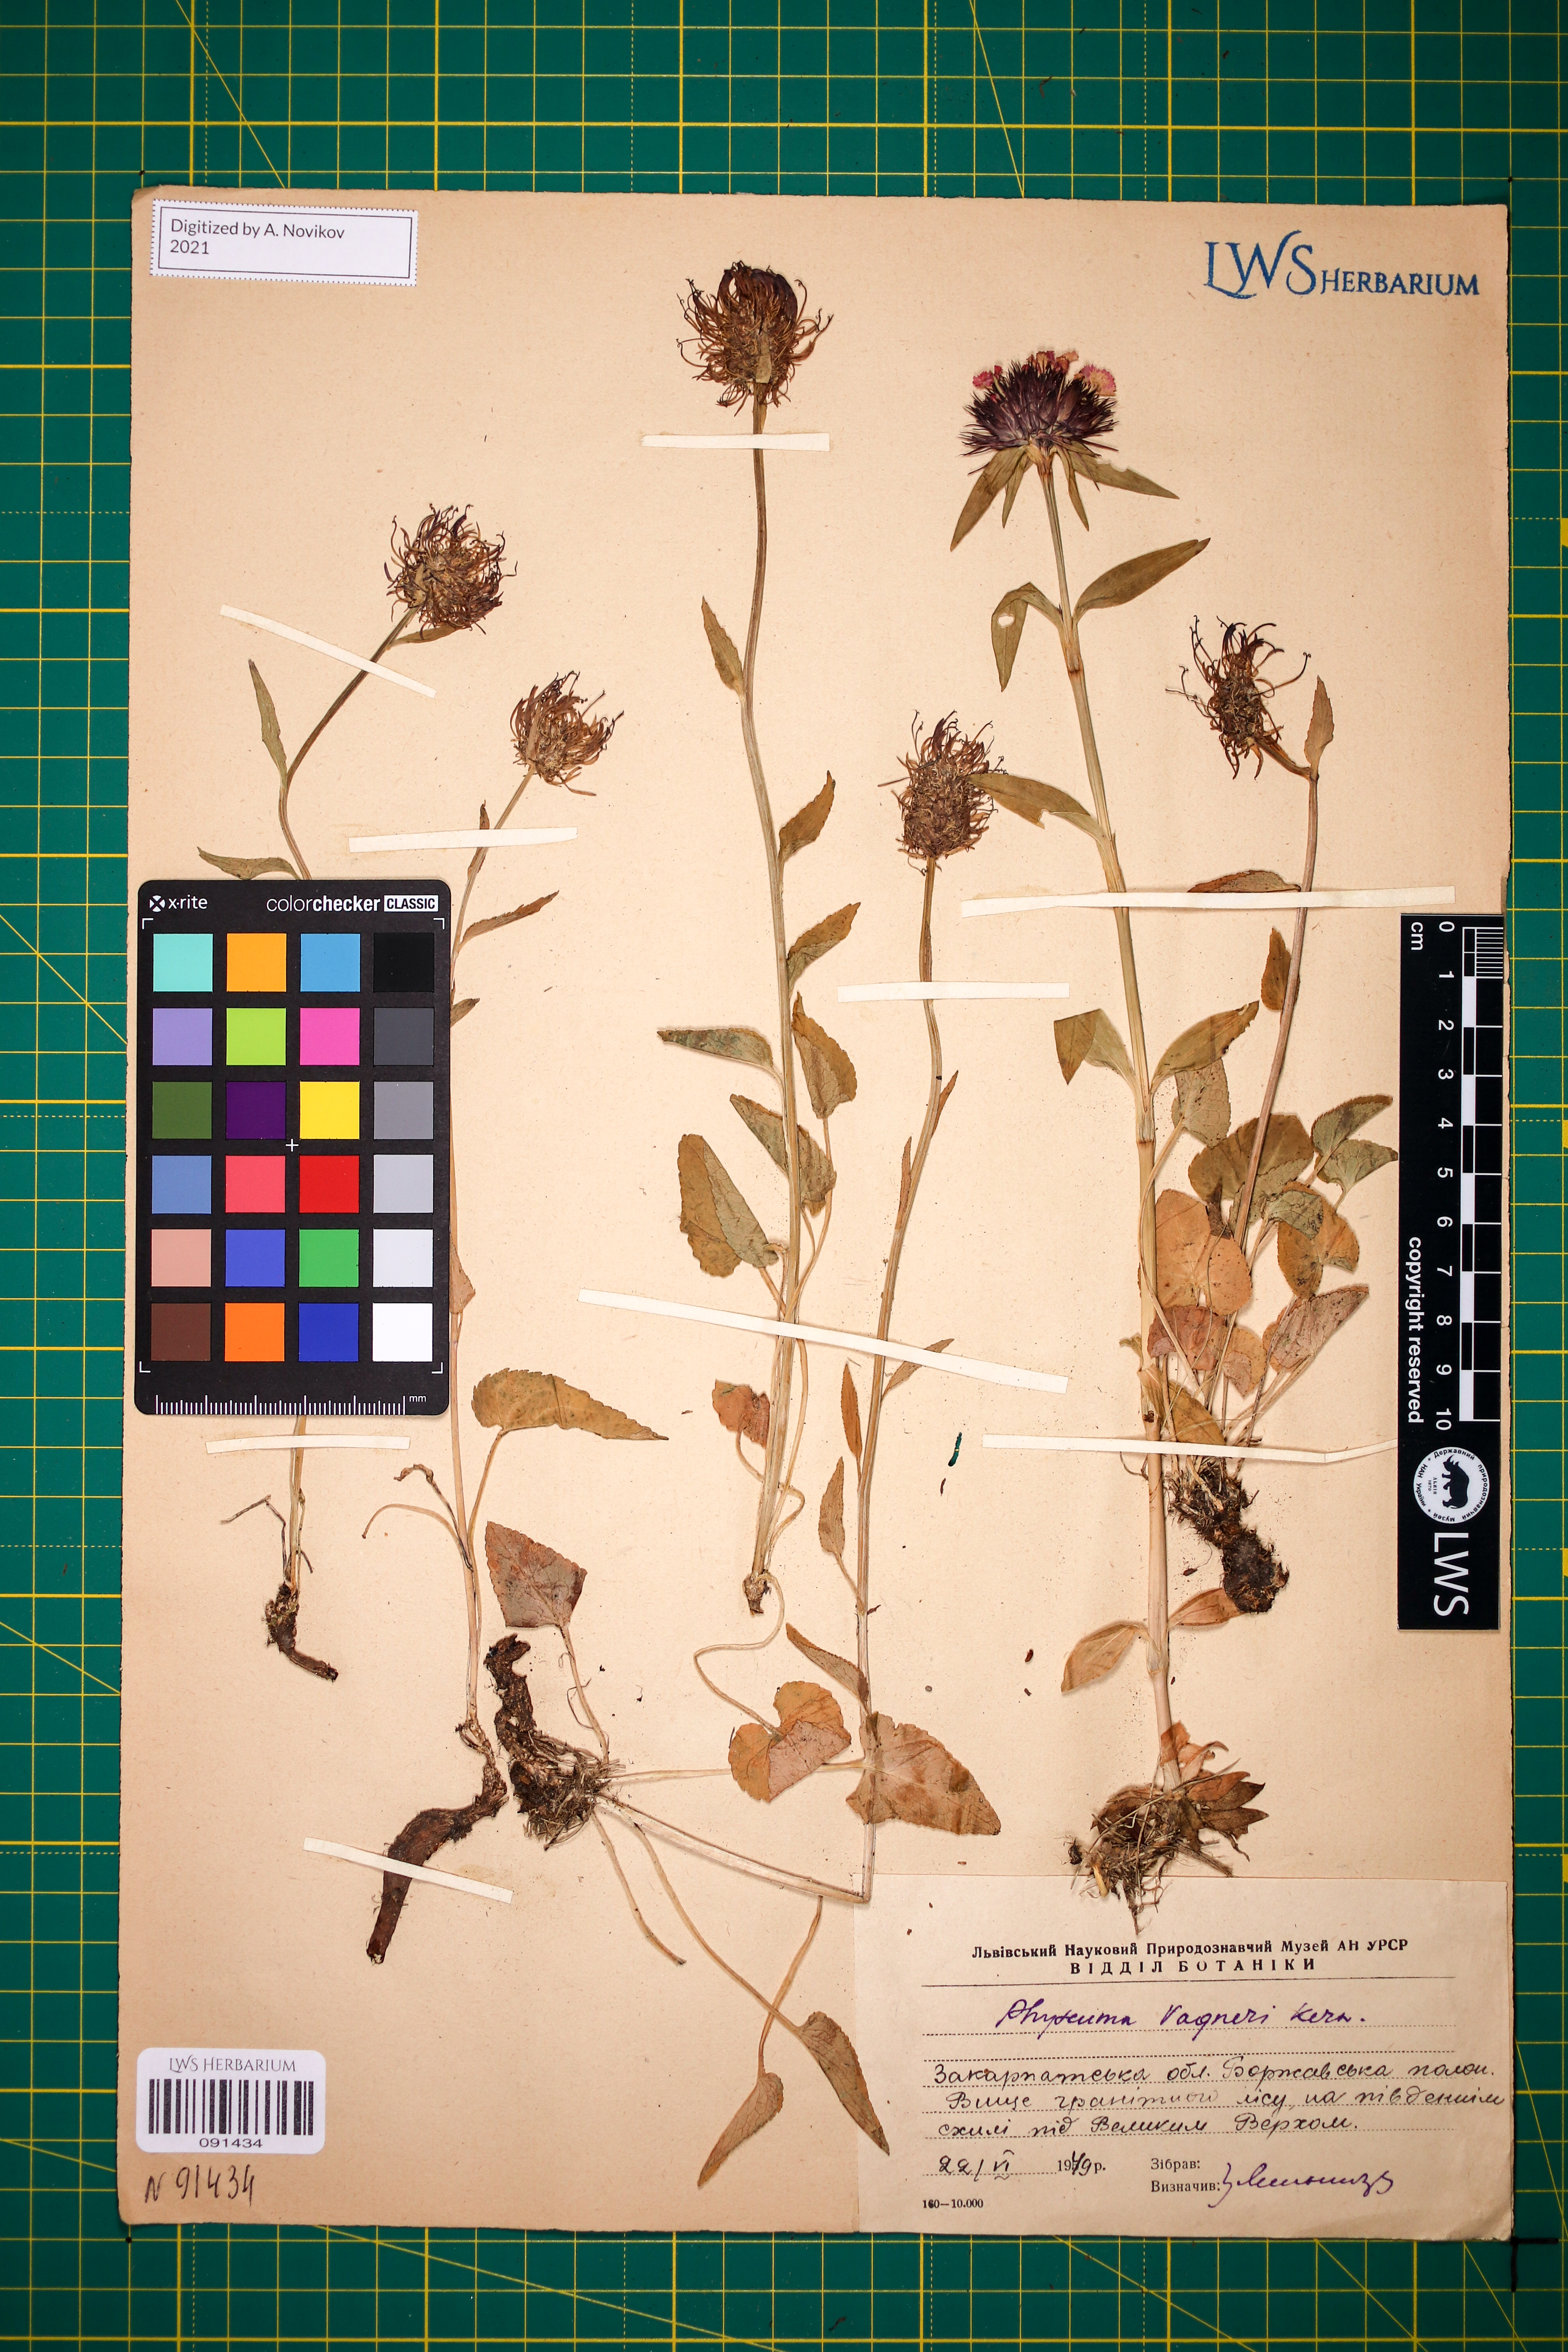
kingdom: Plantae
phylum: Tracheophyta
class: Magnoliopsida
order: Asterales
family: Campanulaceae
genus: Phyteuma
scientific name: Phyteuma vagneri
